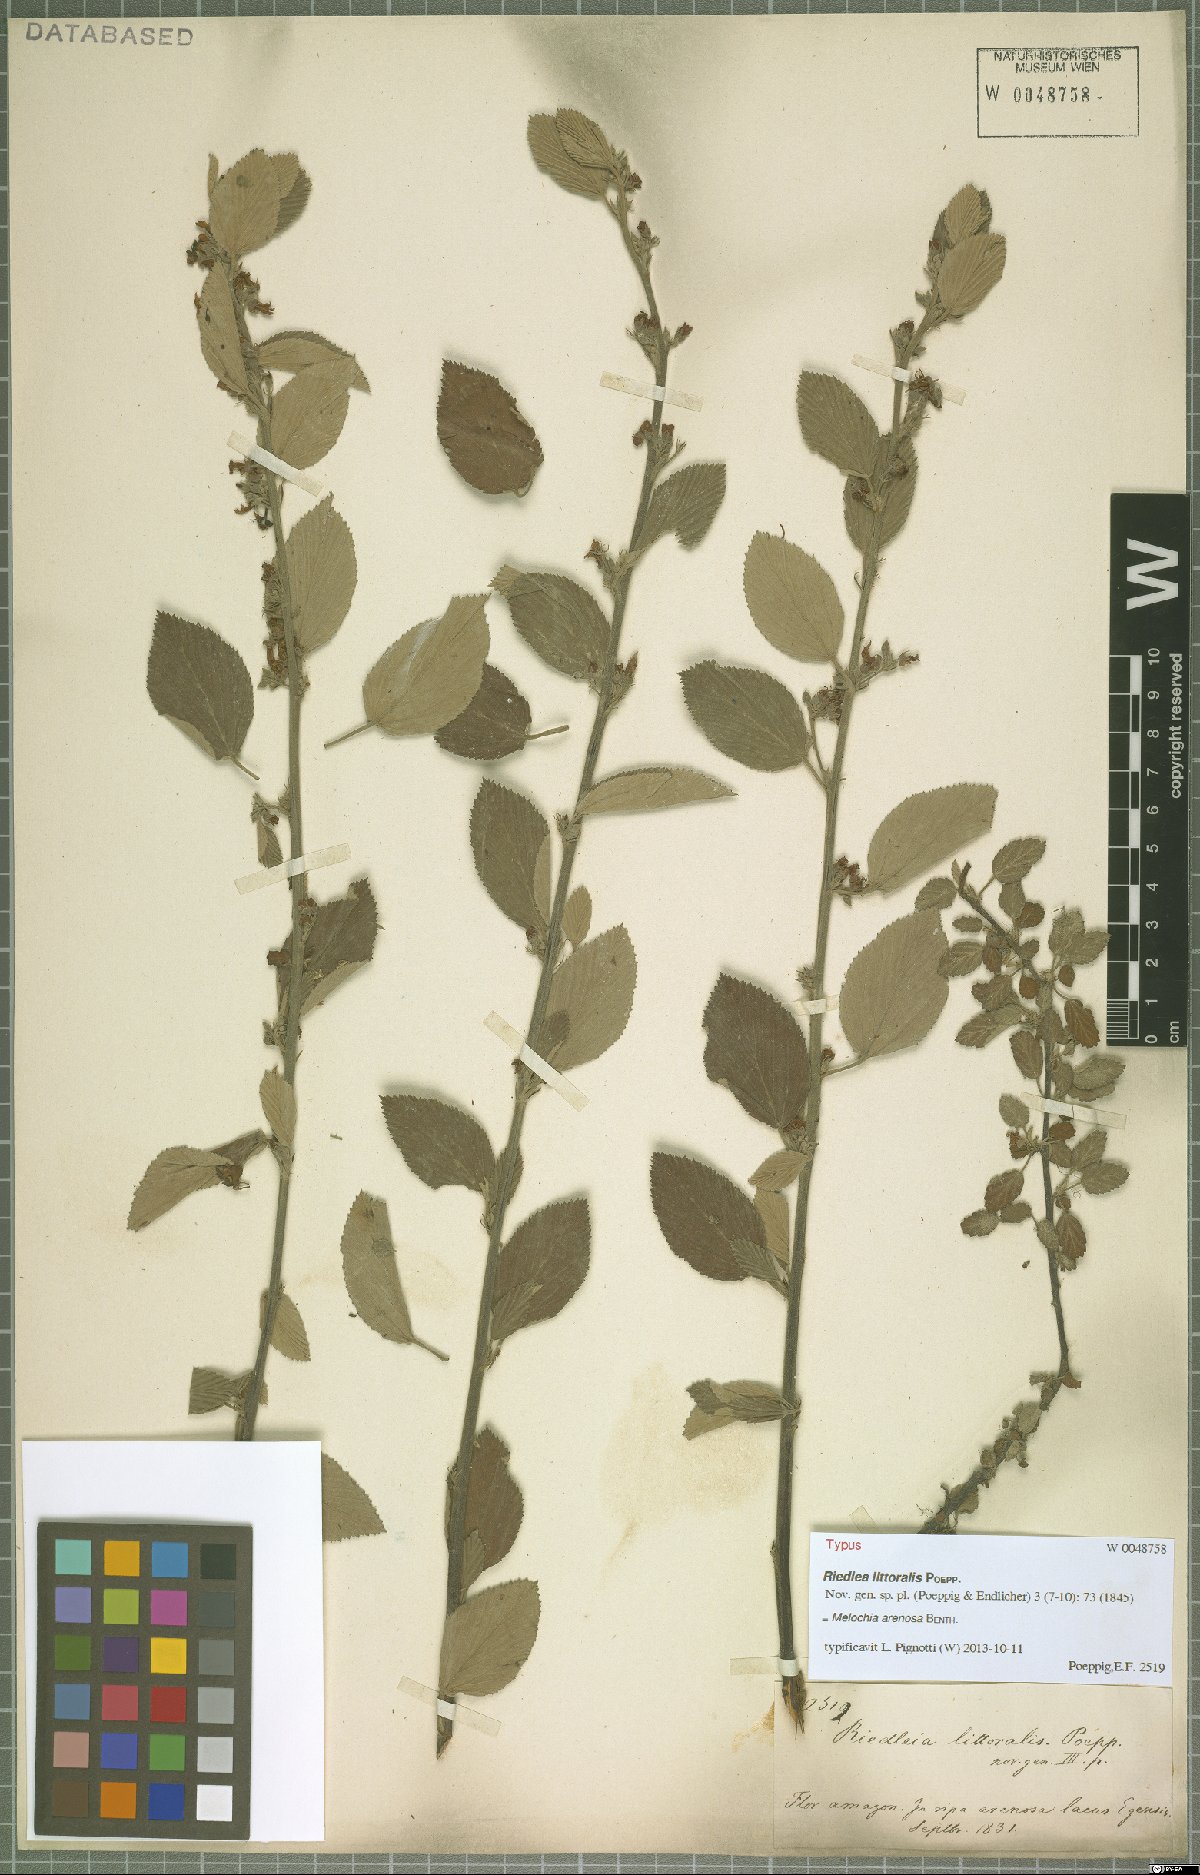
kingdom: Plantae
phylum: Tracheophyta
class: Magnoliopsida
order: Malvales
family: Malvaceae
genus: Melochia
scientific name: Melochia arenosa
